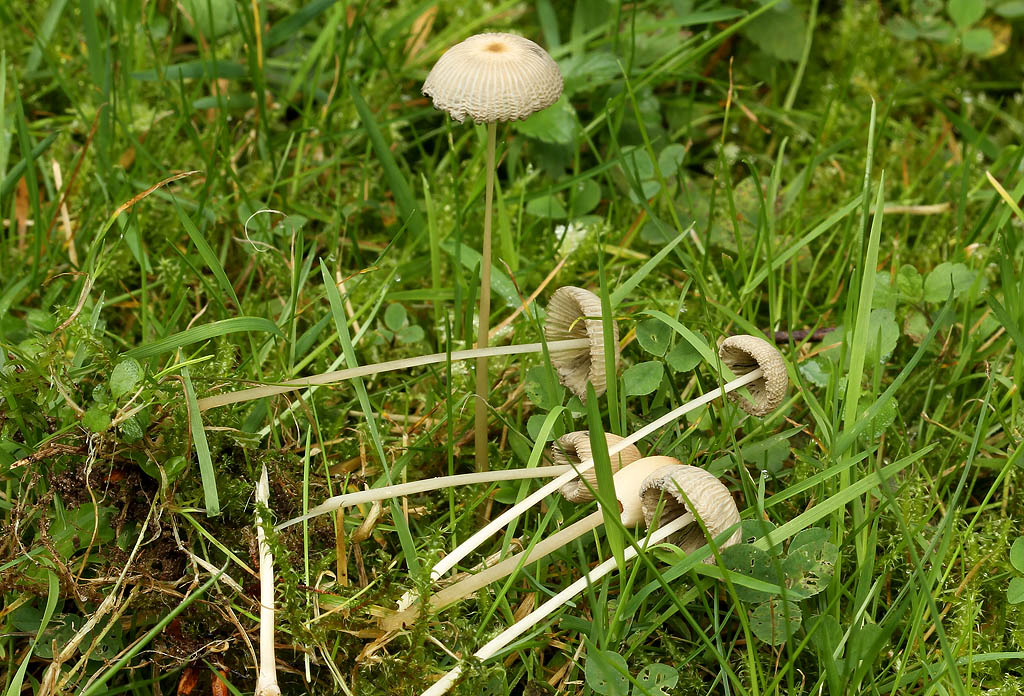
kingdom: Fungi
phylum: Basidiomycota
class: Agaricomycetes
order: Agaricales
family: Psathyrellaceae
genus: Parasola
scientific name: Parasola lactea
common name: glat hjulhat
